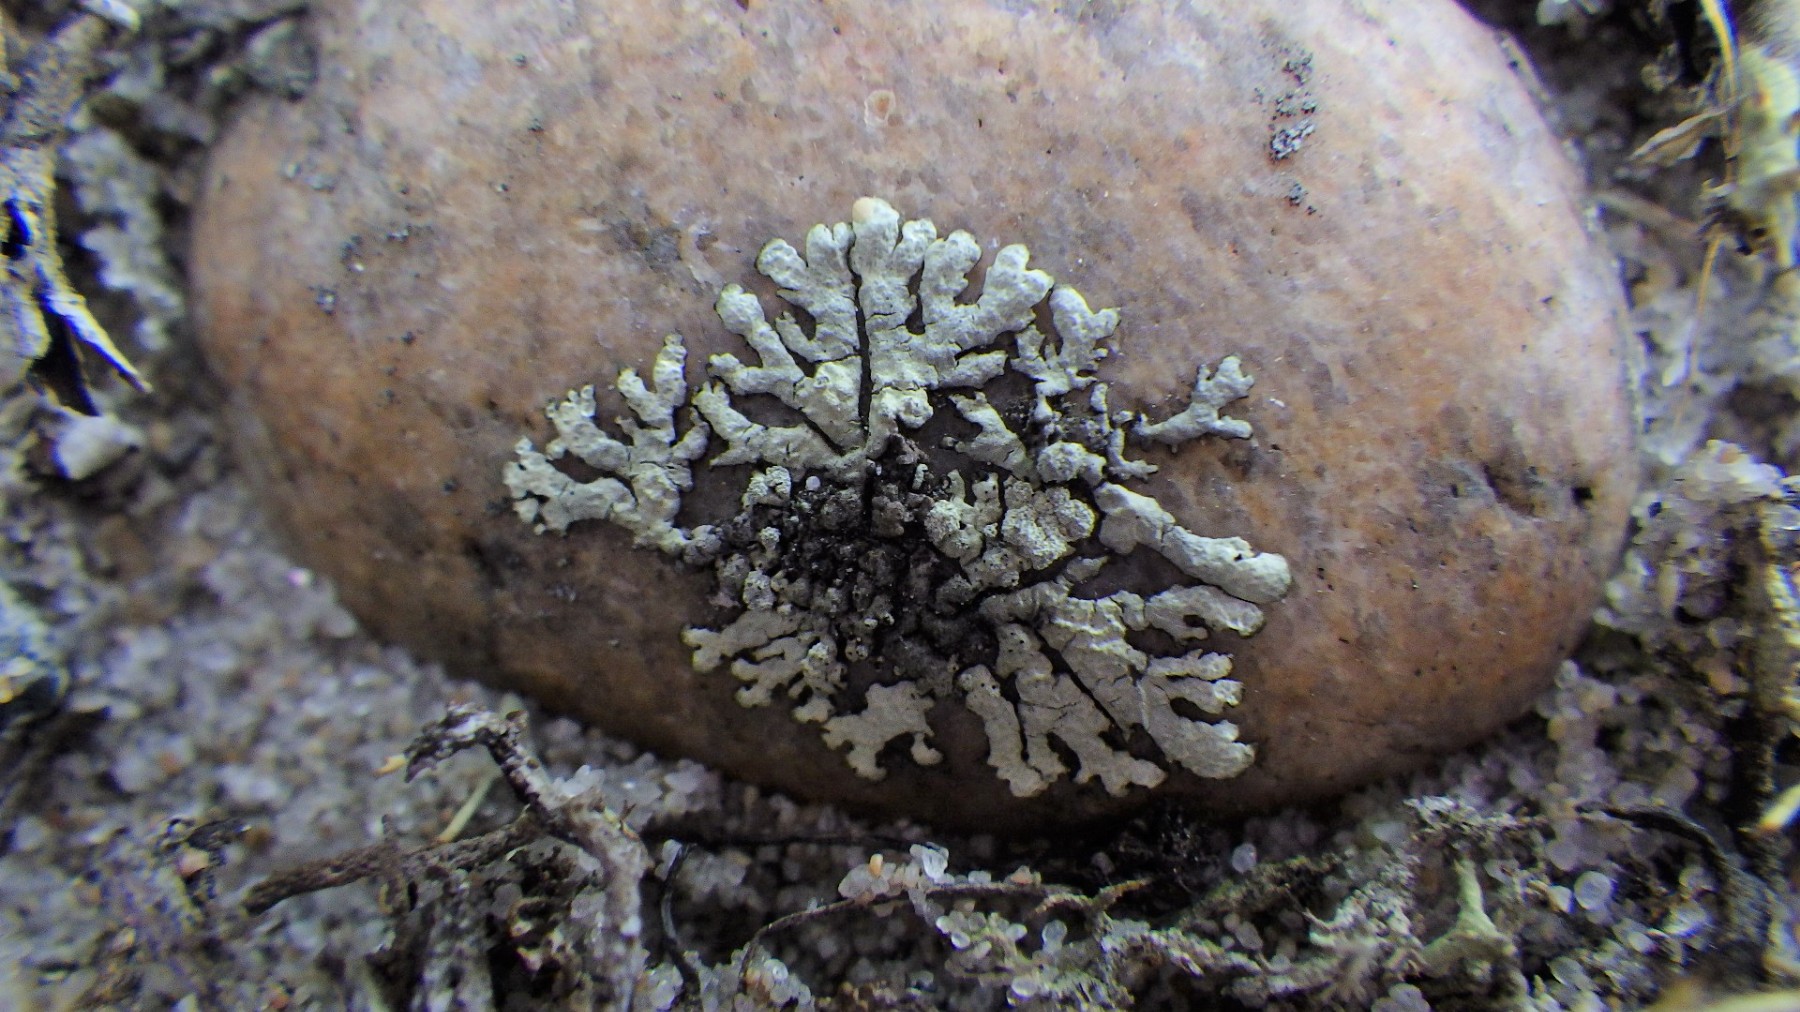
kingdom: Fungi
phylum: Ascomycota
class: Lecanoromycetes
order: Lecanorales
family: Parmeliaceae
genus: Xanthoparmelia
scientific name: Xanthoparmelia mougeotii
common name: liden skållav
